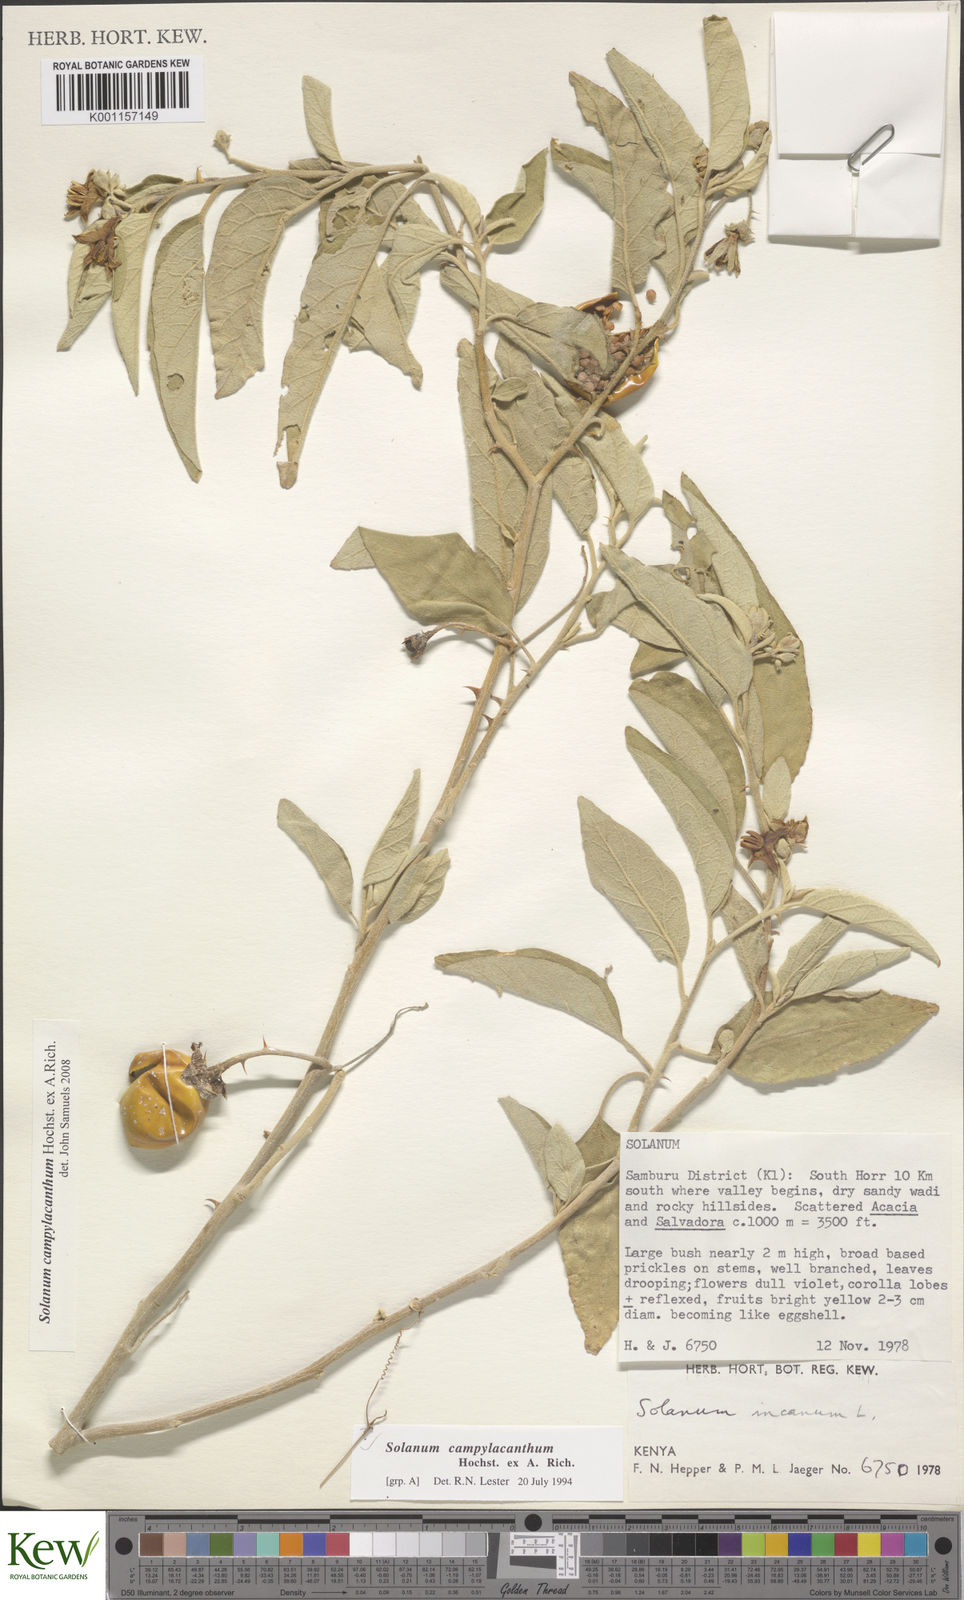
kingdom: Plantae
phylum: Tracheophyta
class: Magnoliopsida
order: Solanales
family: Solanaceae
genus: Solanum
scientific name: Solanum campylacanthum
